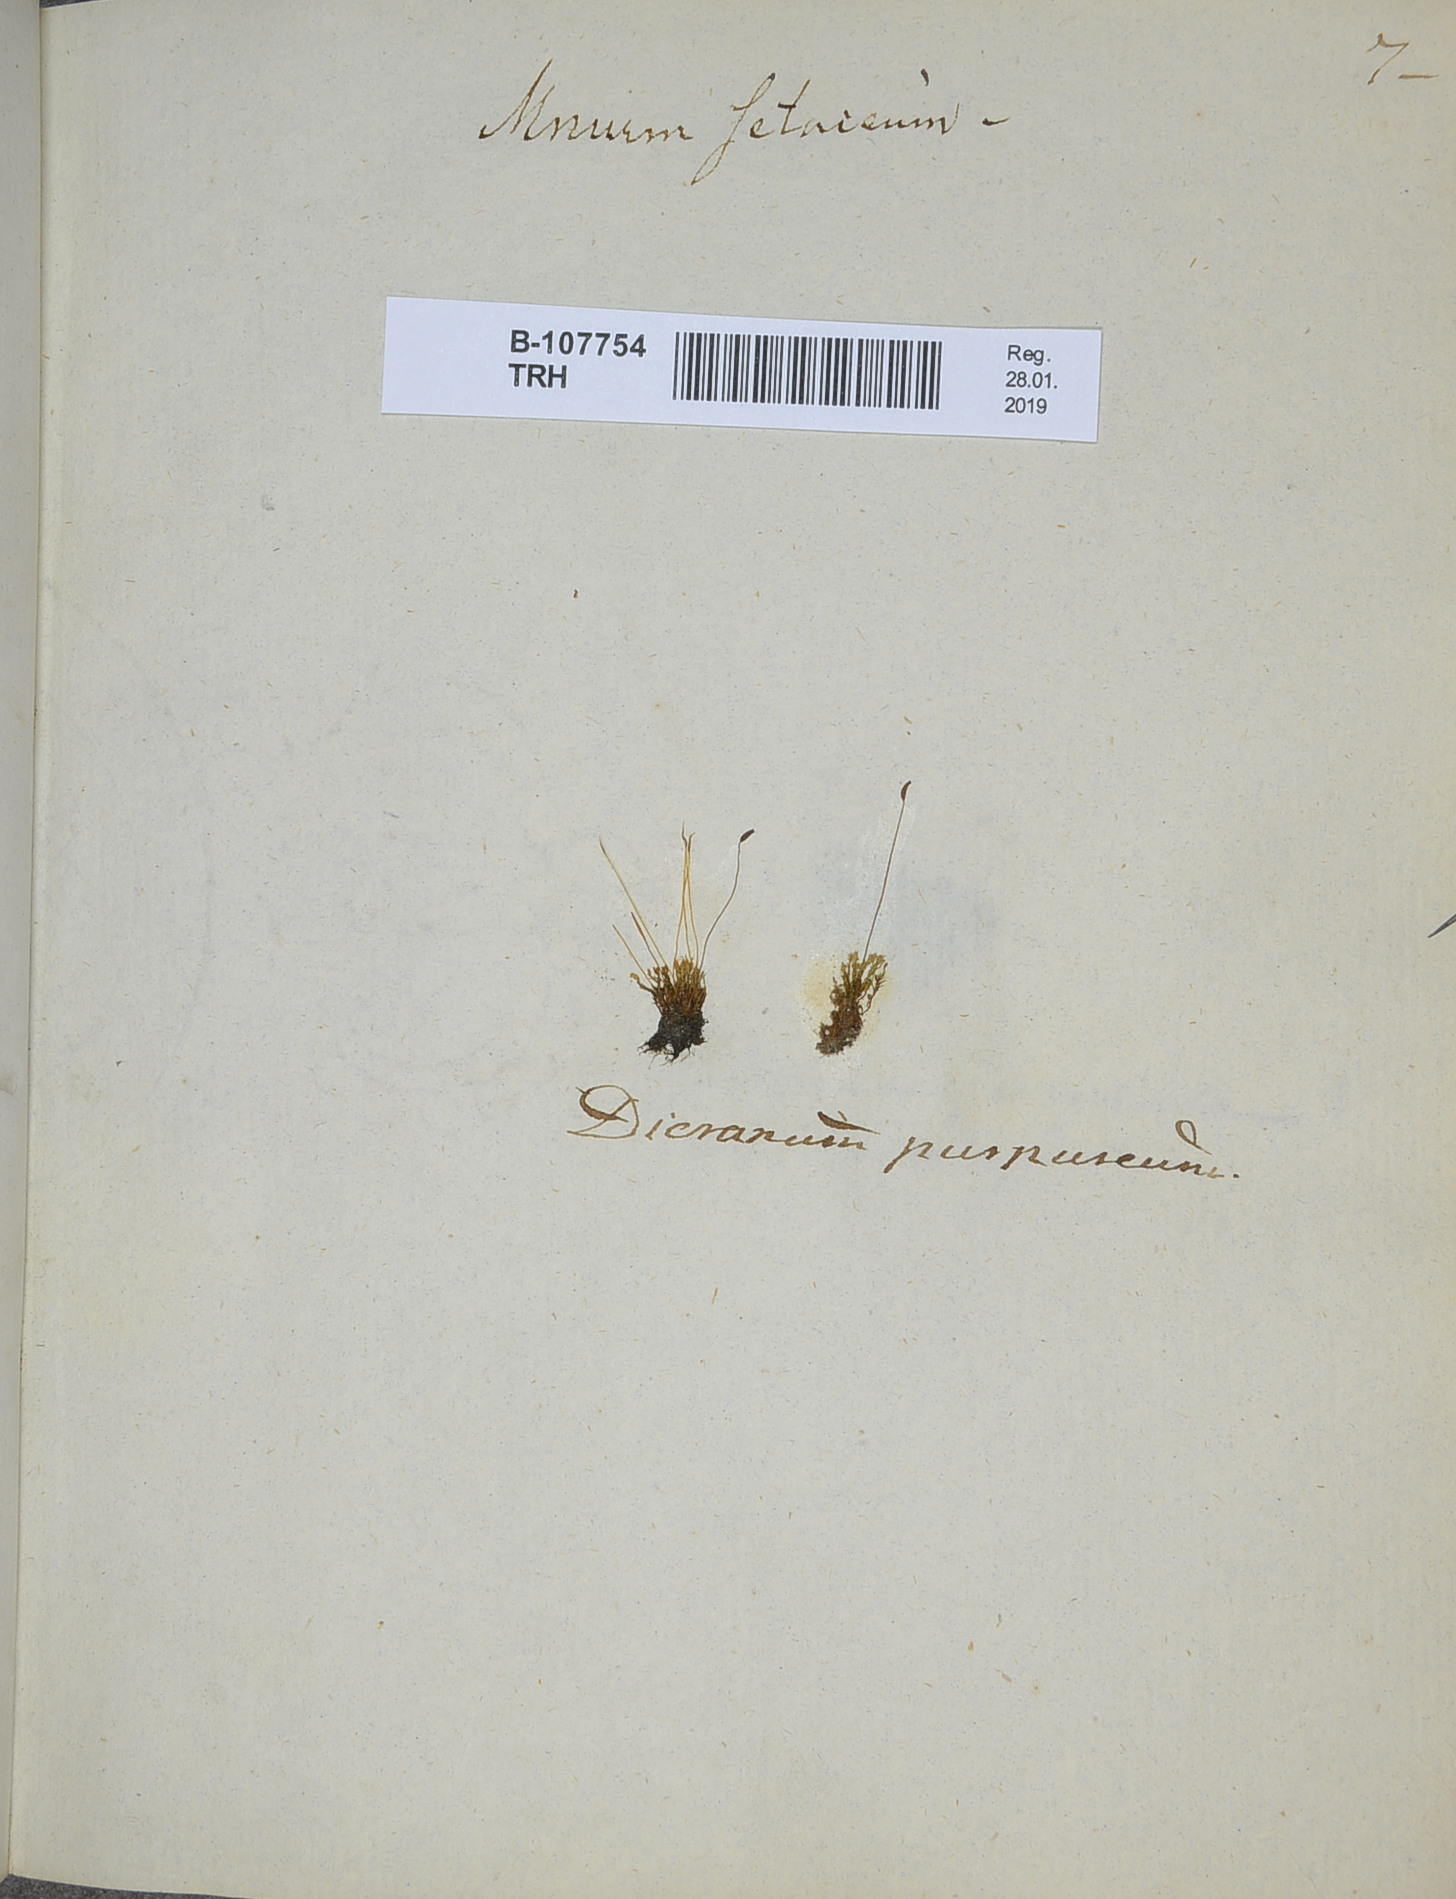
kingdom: Plantae
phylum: Bryophyta
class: Bryopsida
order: Pottiales
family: Pottiaceae
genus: Streblotrichum
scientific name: Streblotrichum convolutum
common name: Lesser bird's-claw beard-moss
